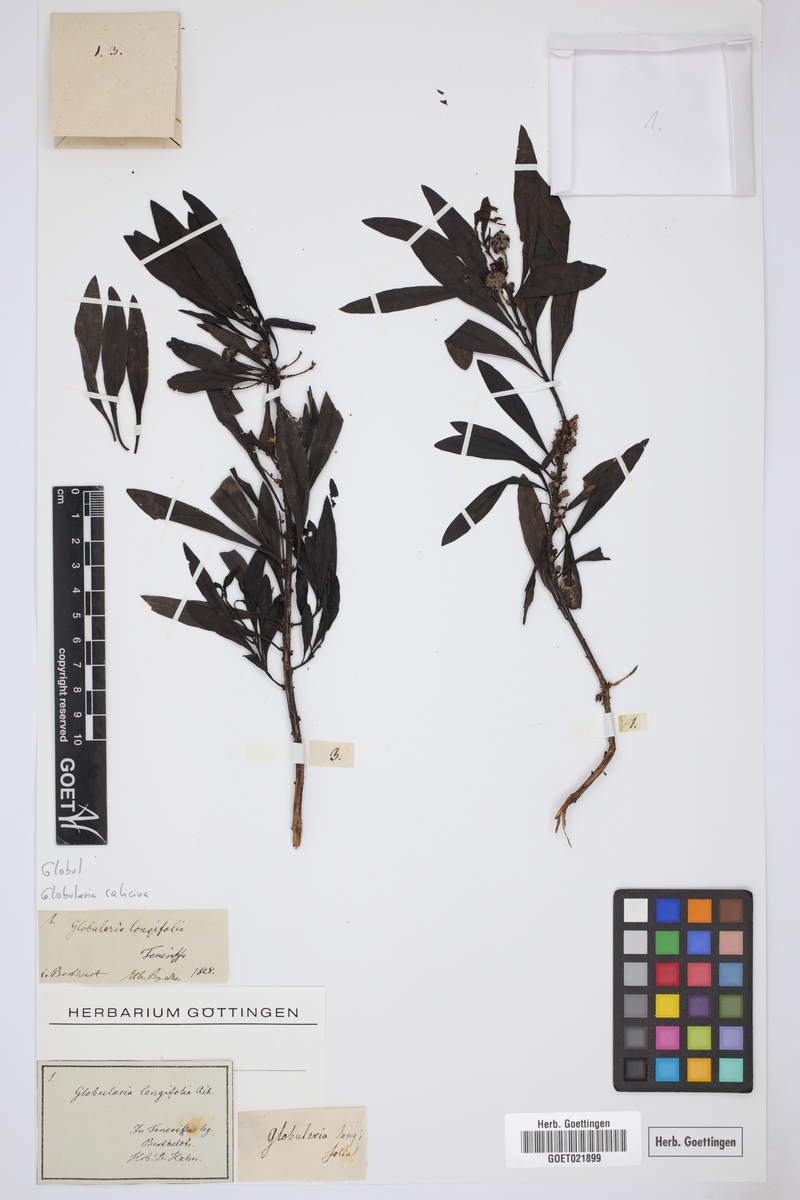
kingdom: Plantae
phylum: Tracheophyta
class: Magnoliopsida
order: Lamiales
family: Plantaginaceae
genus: Globularia
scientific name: Globularia salicina
